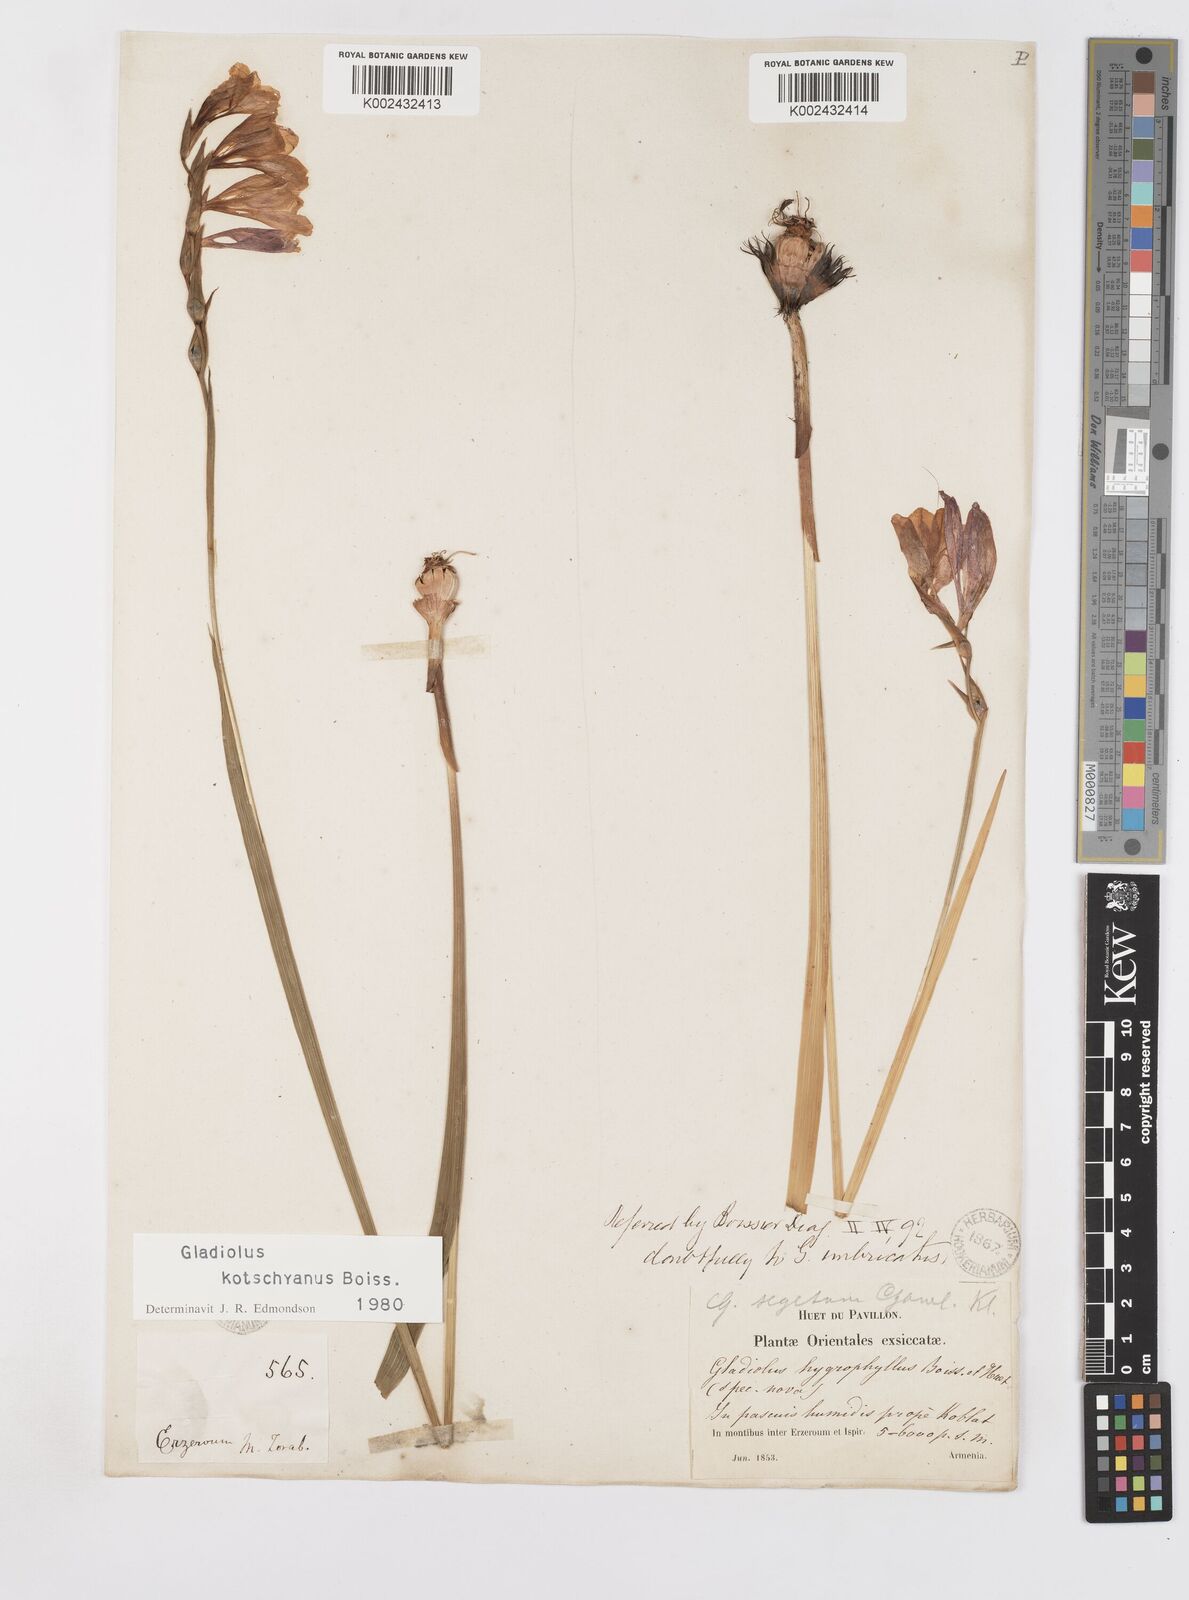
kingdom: Plantae
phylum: Tracheophyta
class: Liliopsida
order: Asparagales
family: Iridaceae
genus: Gladiolus
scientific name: Gladiolus kotschyanus
